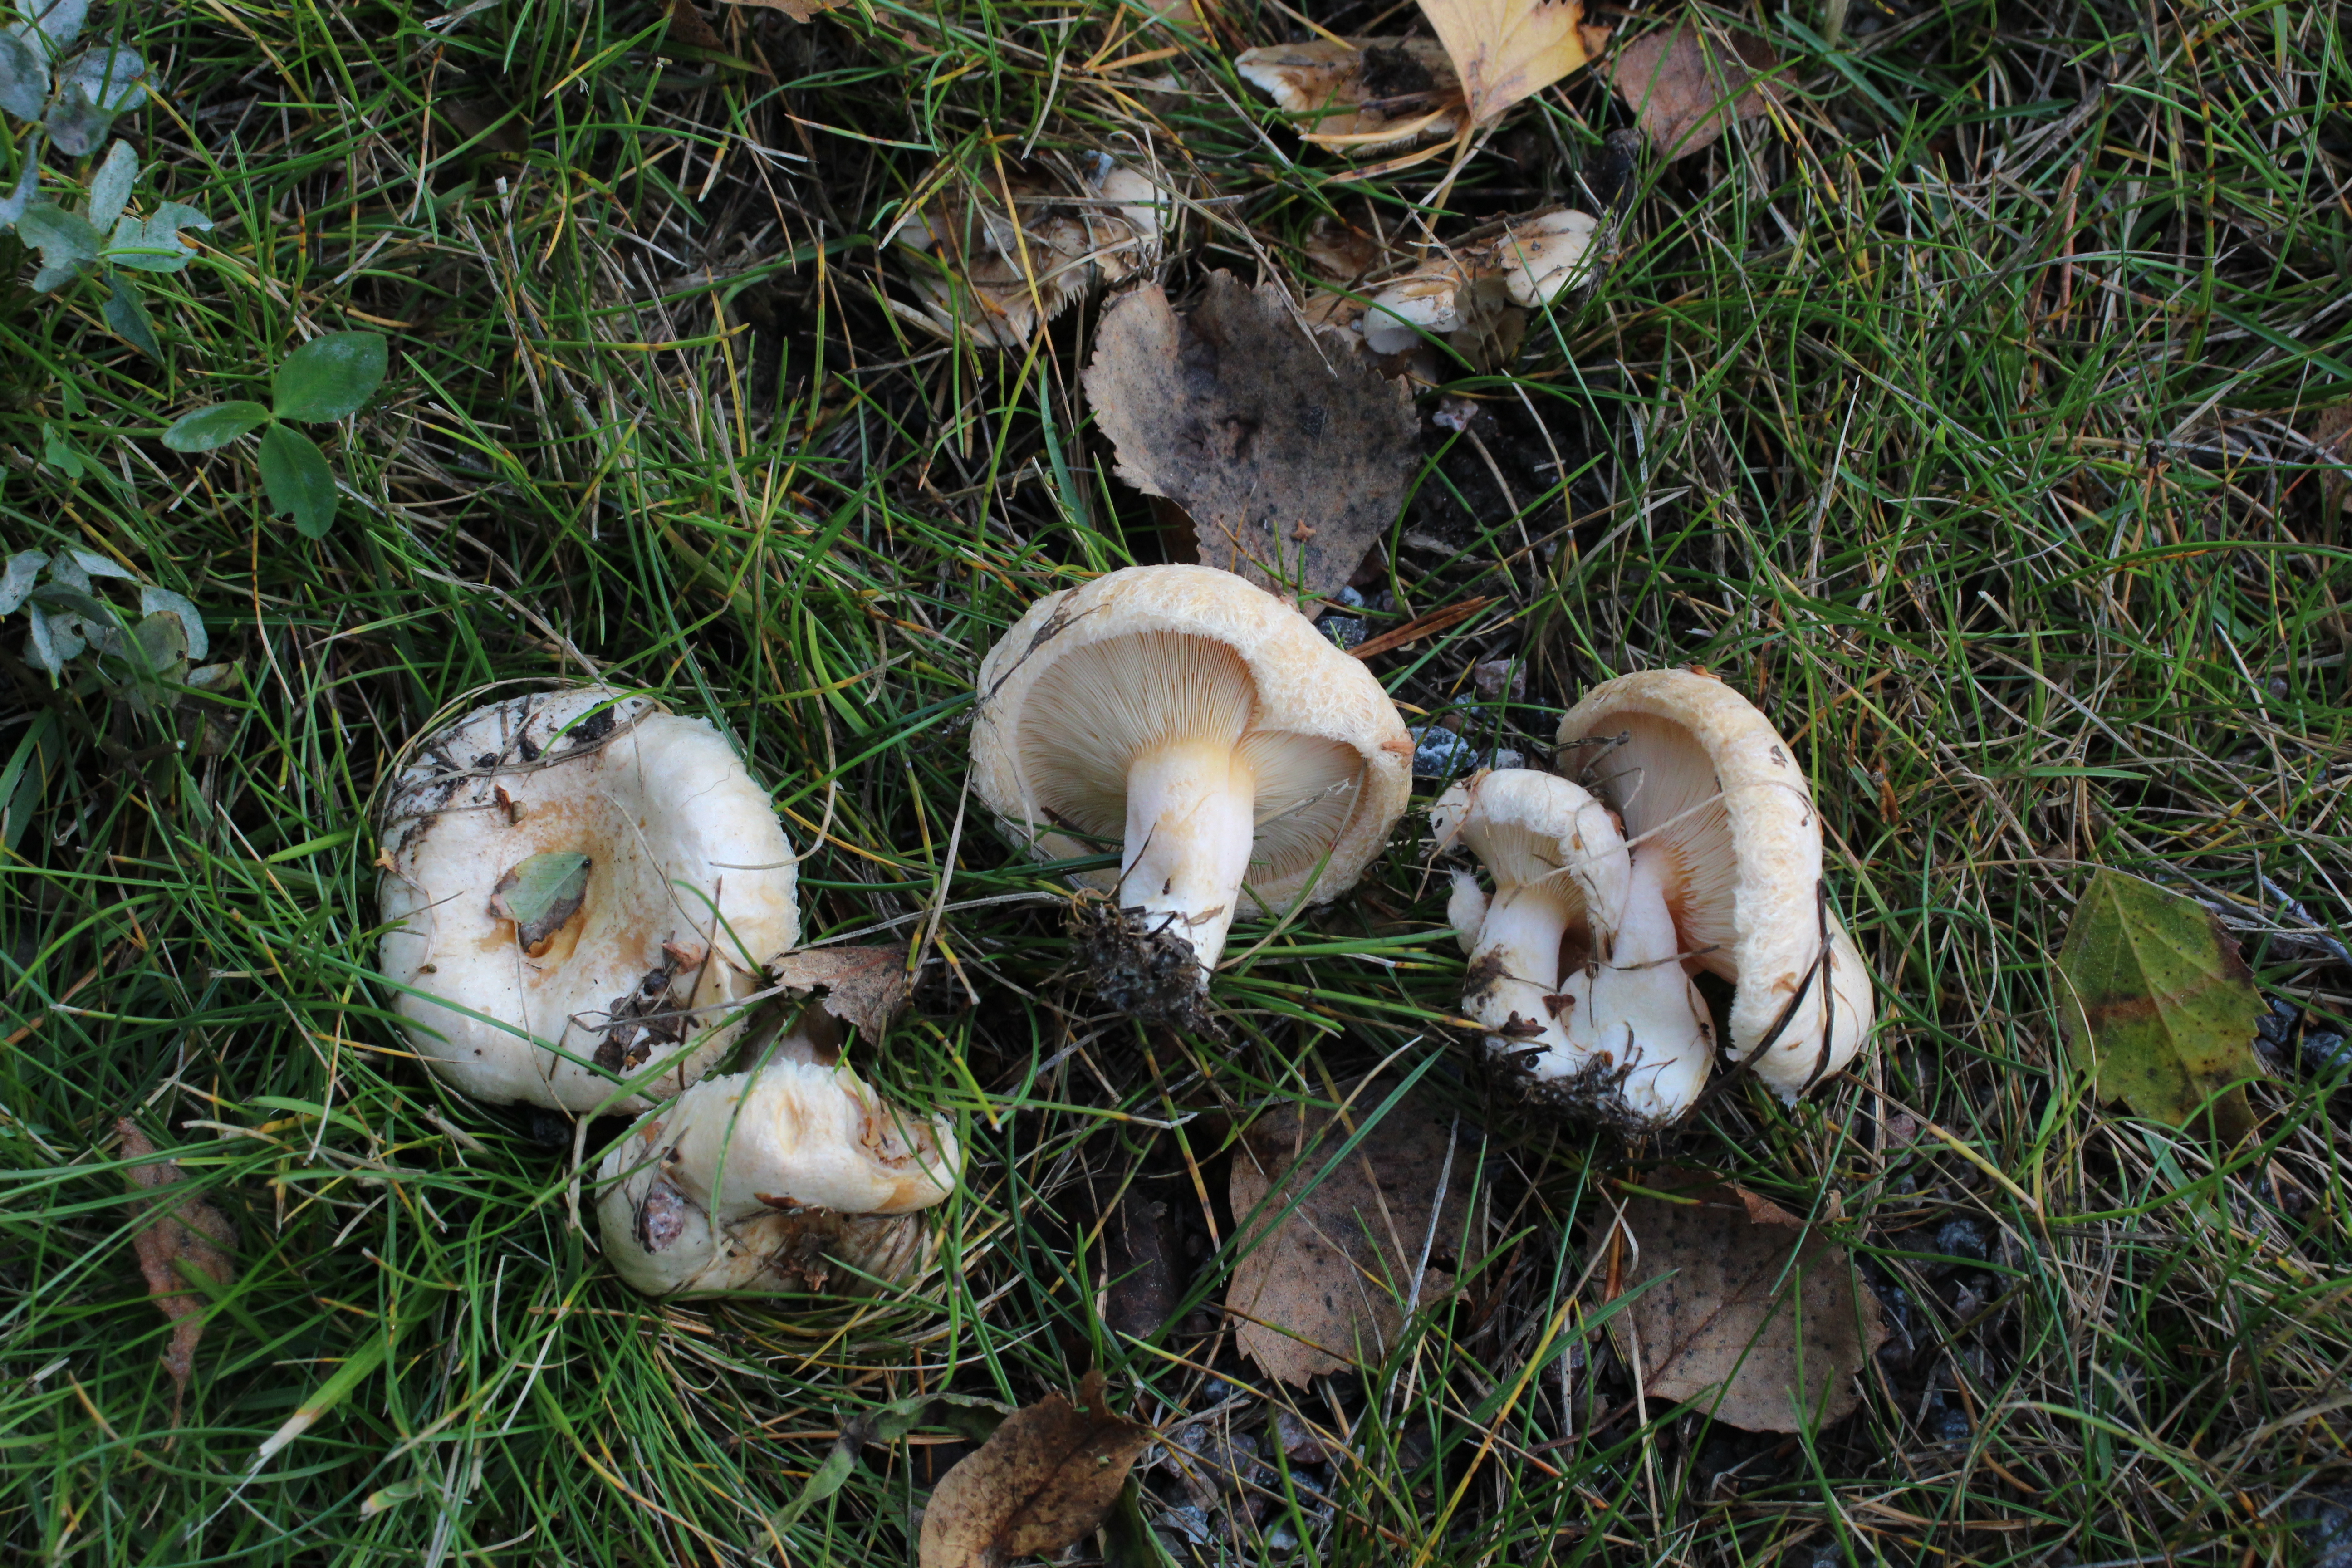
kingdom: Fungi
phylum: Basidiomycota
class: Agaricomycetes
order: Russulales
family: Russulaceae
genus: Lactarius
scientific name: Lactarius pubescens
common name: Bearded milkcap
